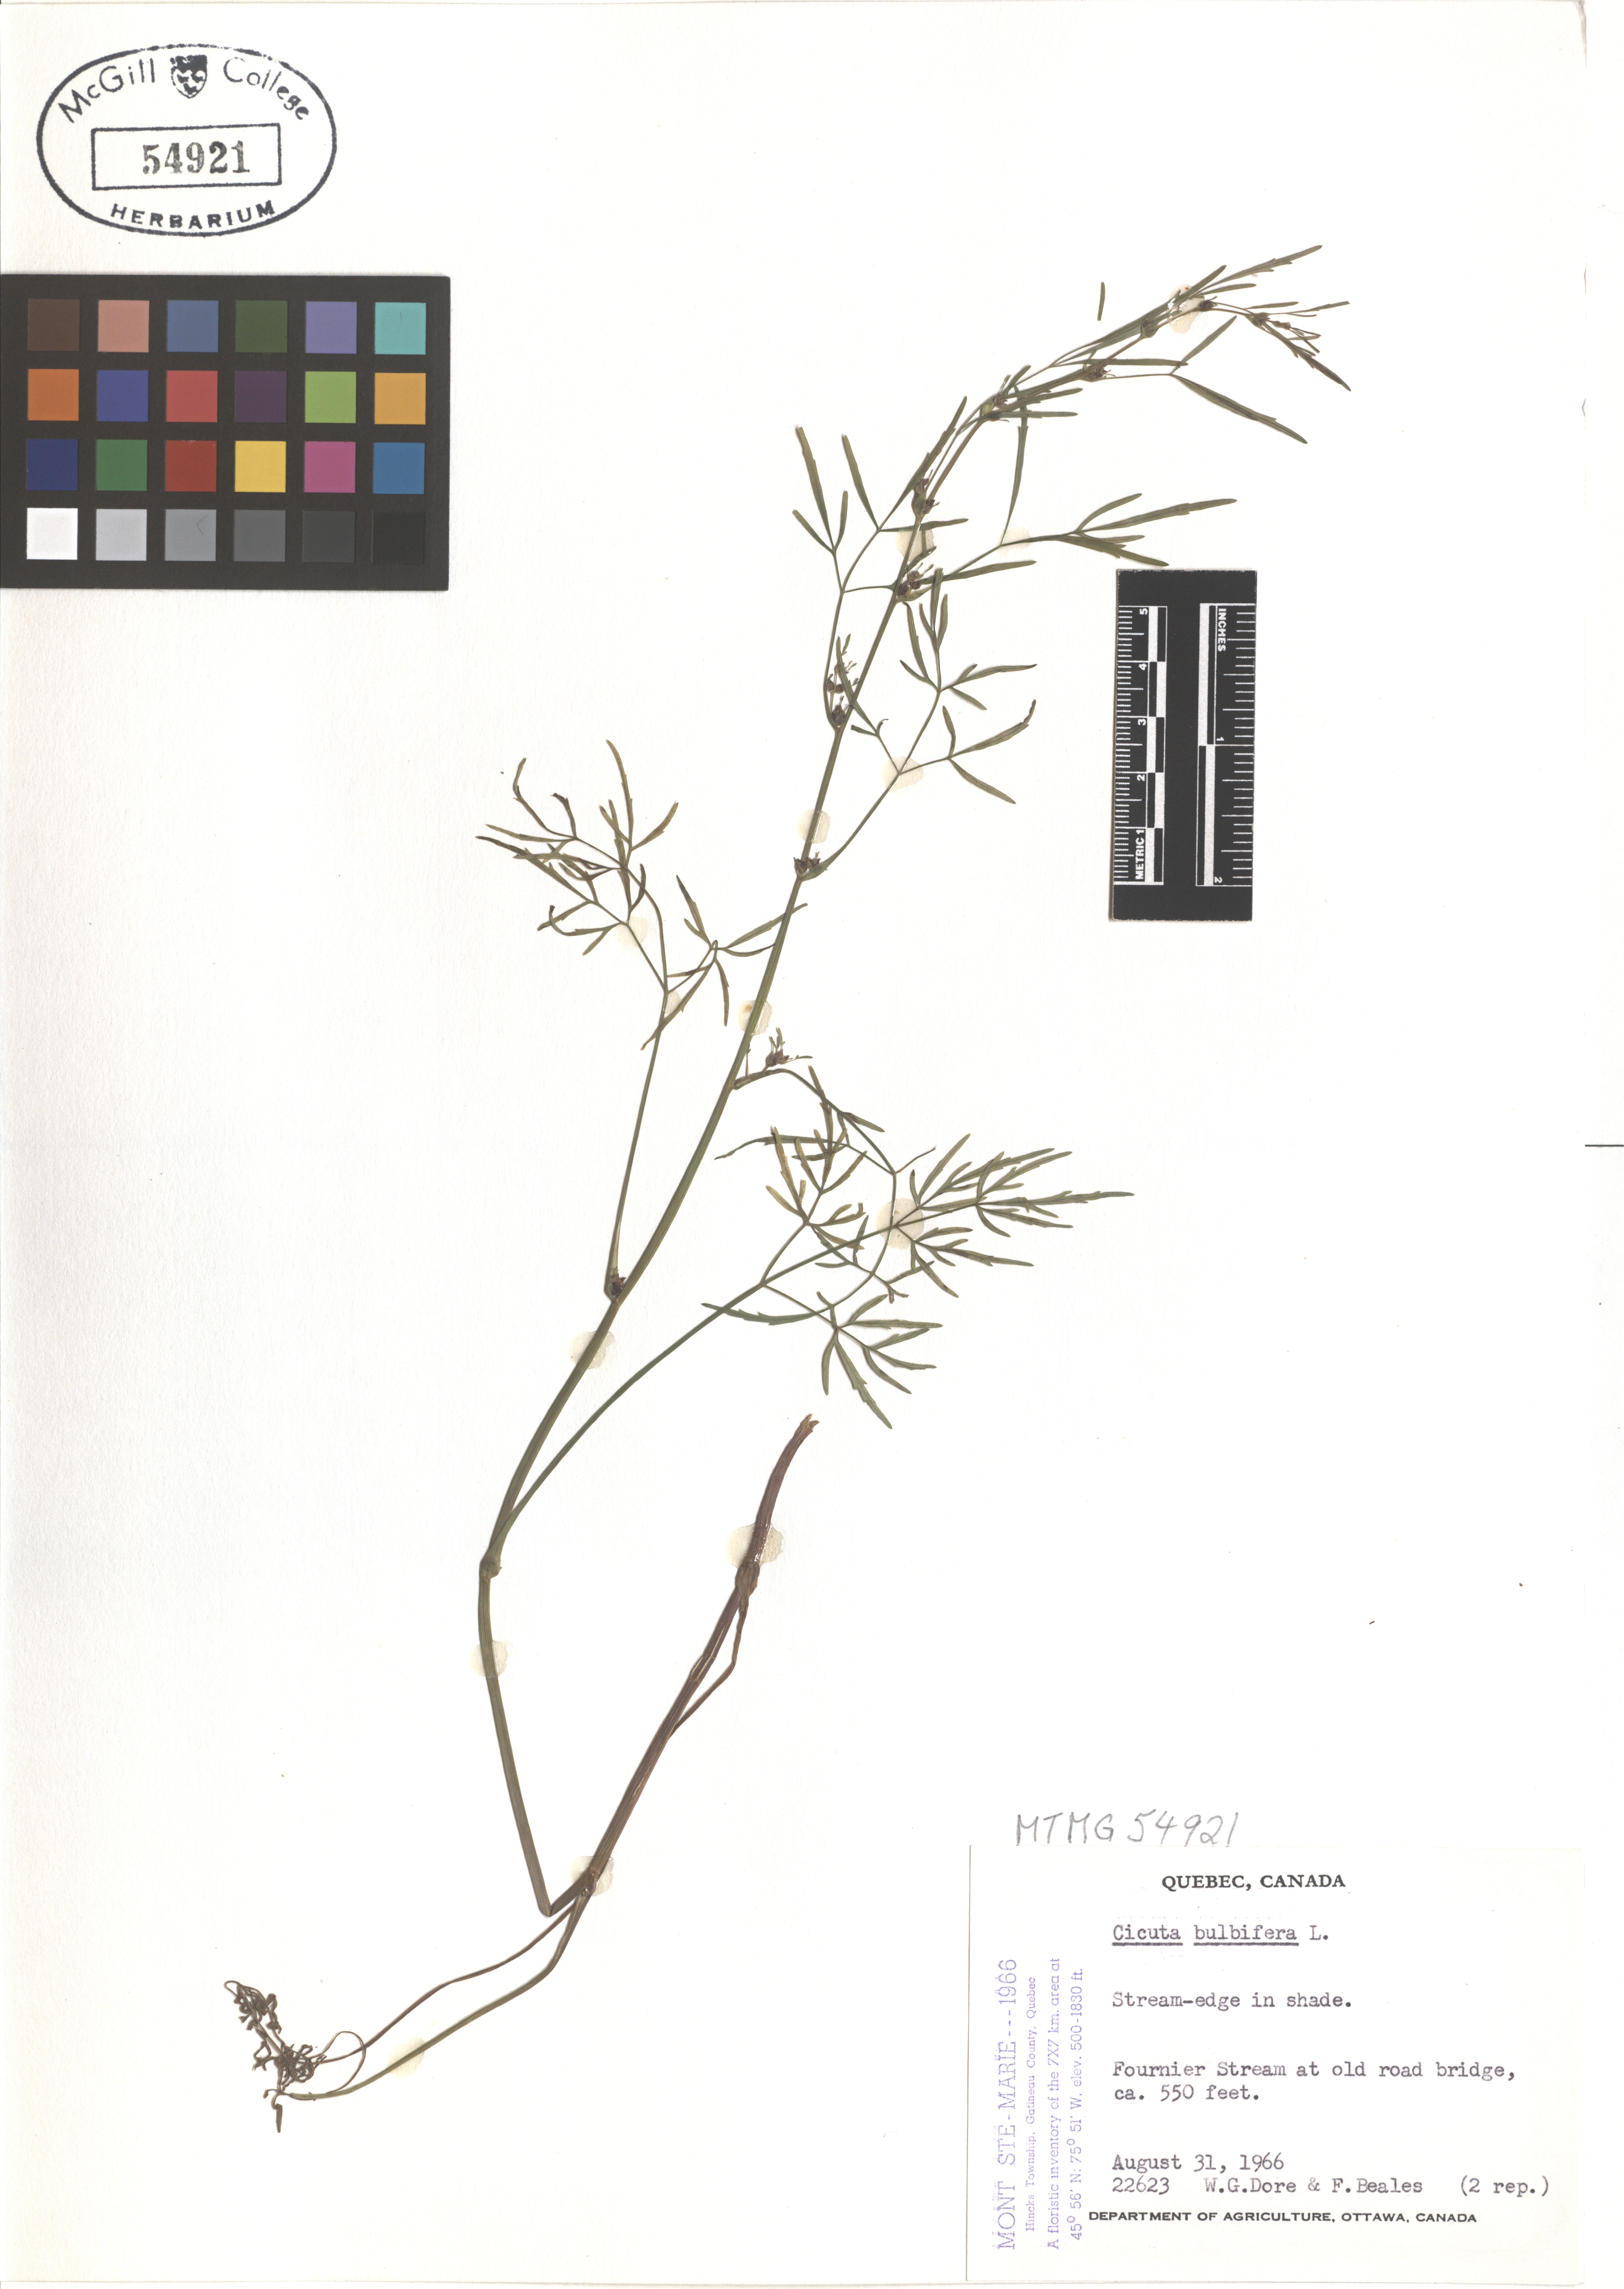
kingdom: Plantae
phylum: Tracheophyta
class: Magnoliopsida
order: Apiales
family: Apiaceae
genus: Cicuta
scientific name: Cicuta bulbifera
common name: Bulb-bearing water-hemlock
